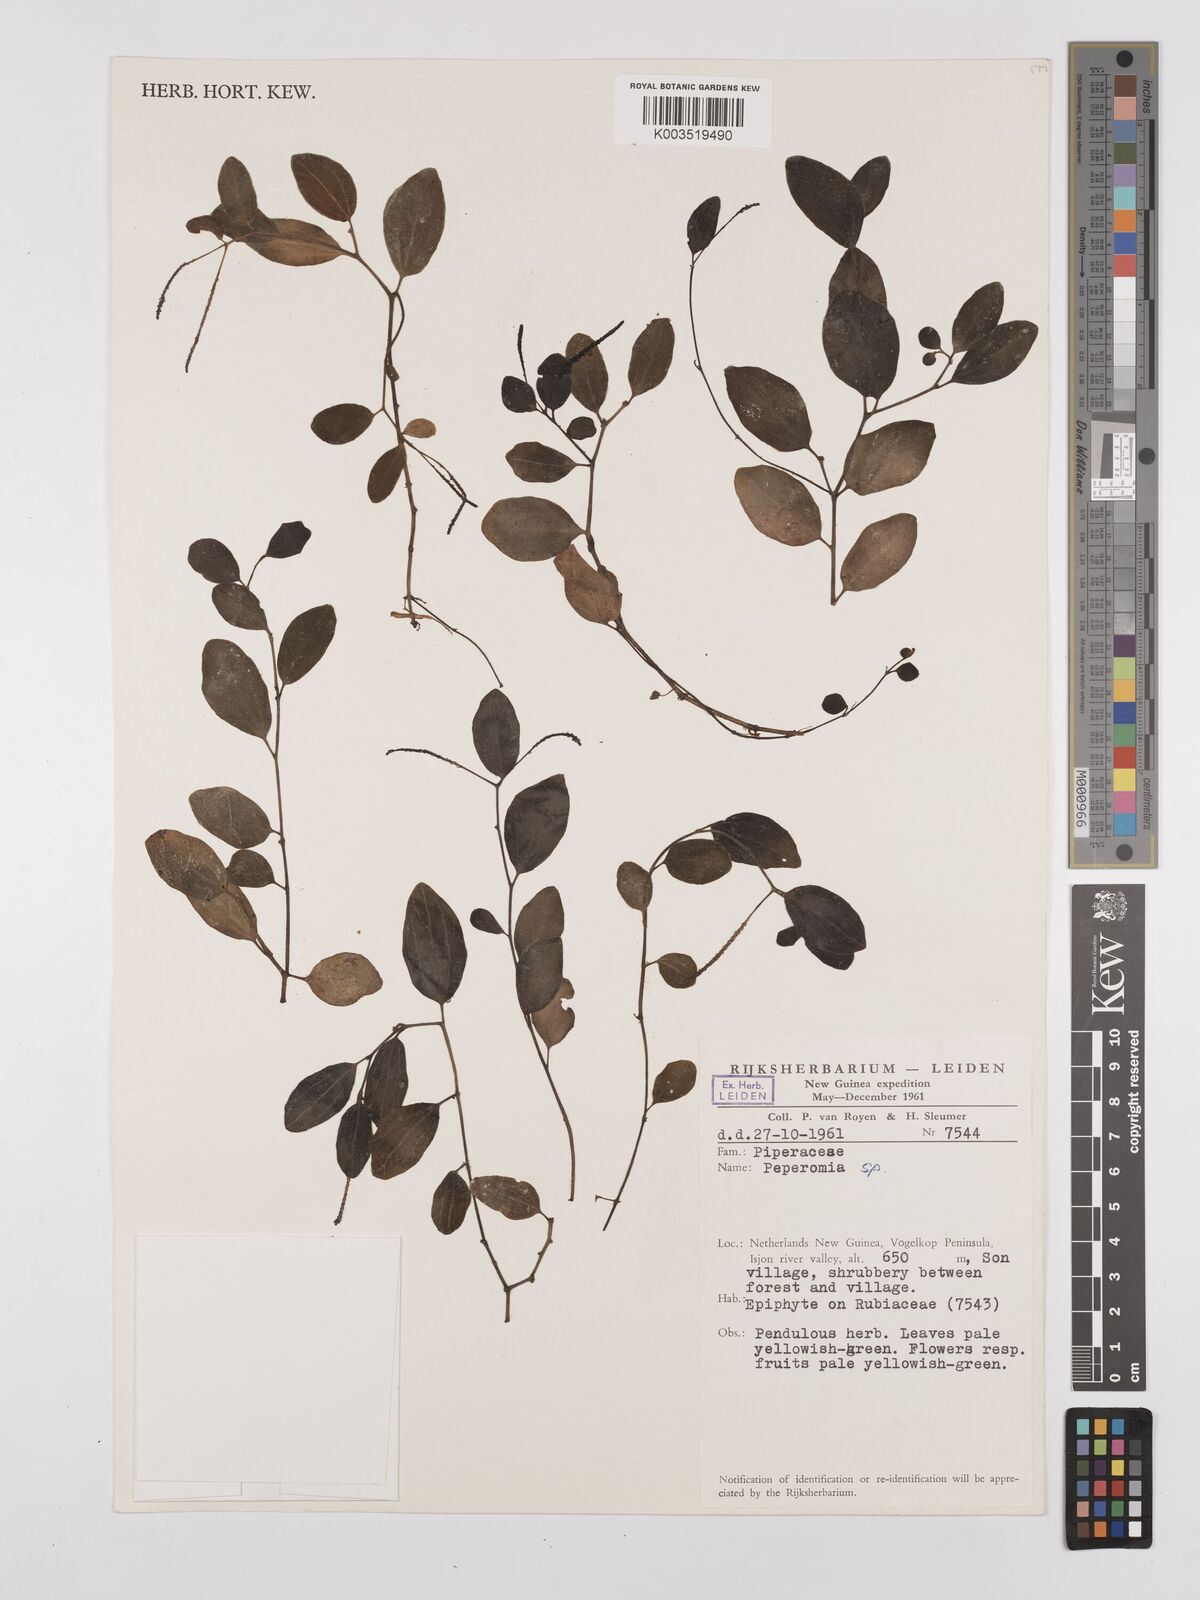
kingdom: Plantae
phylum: Tracheophyta
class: Magnoliopsida
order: Piperales
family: Piperaceae
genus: Peperomia
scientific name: Peperomia
